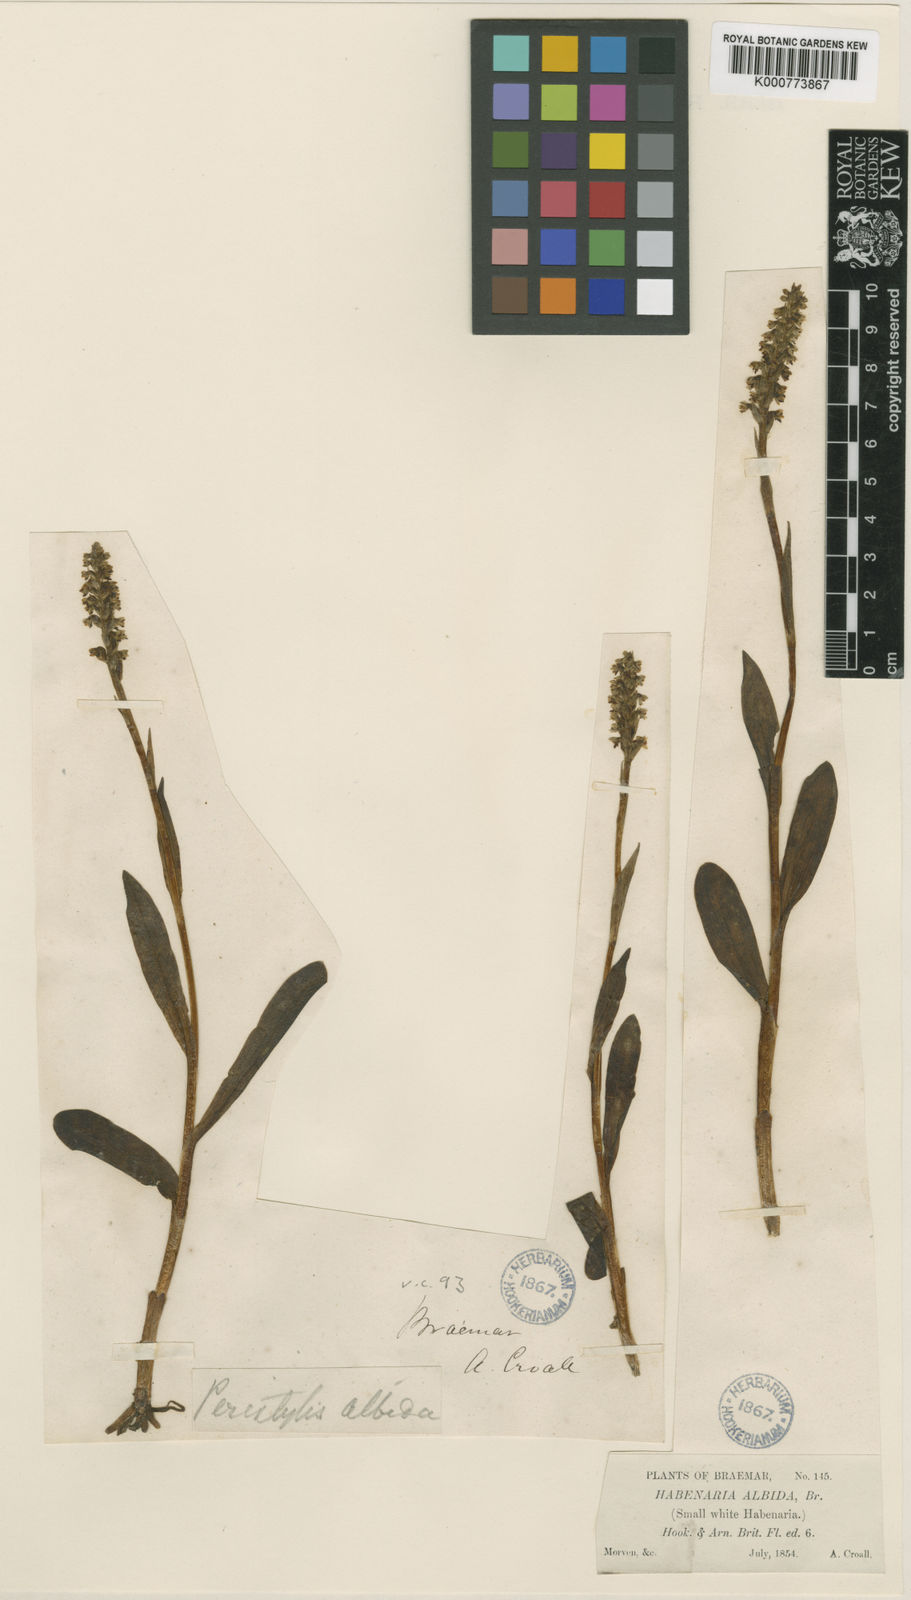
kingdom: Plantae
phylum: Tracheophyta
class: Liliopsida
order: Asparagales
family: Orchidaceae
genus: Pseudorchis
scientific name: Pseudorchis
